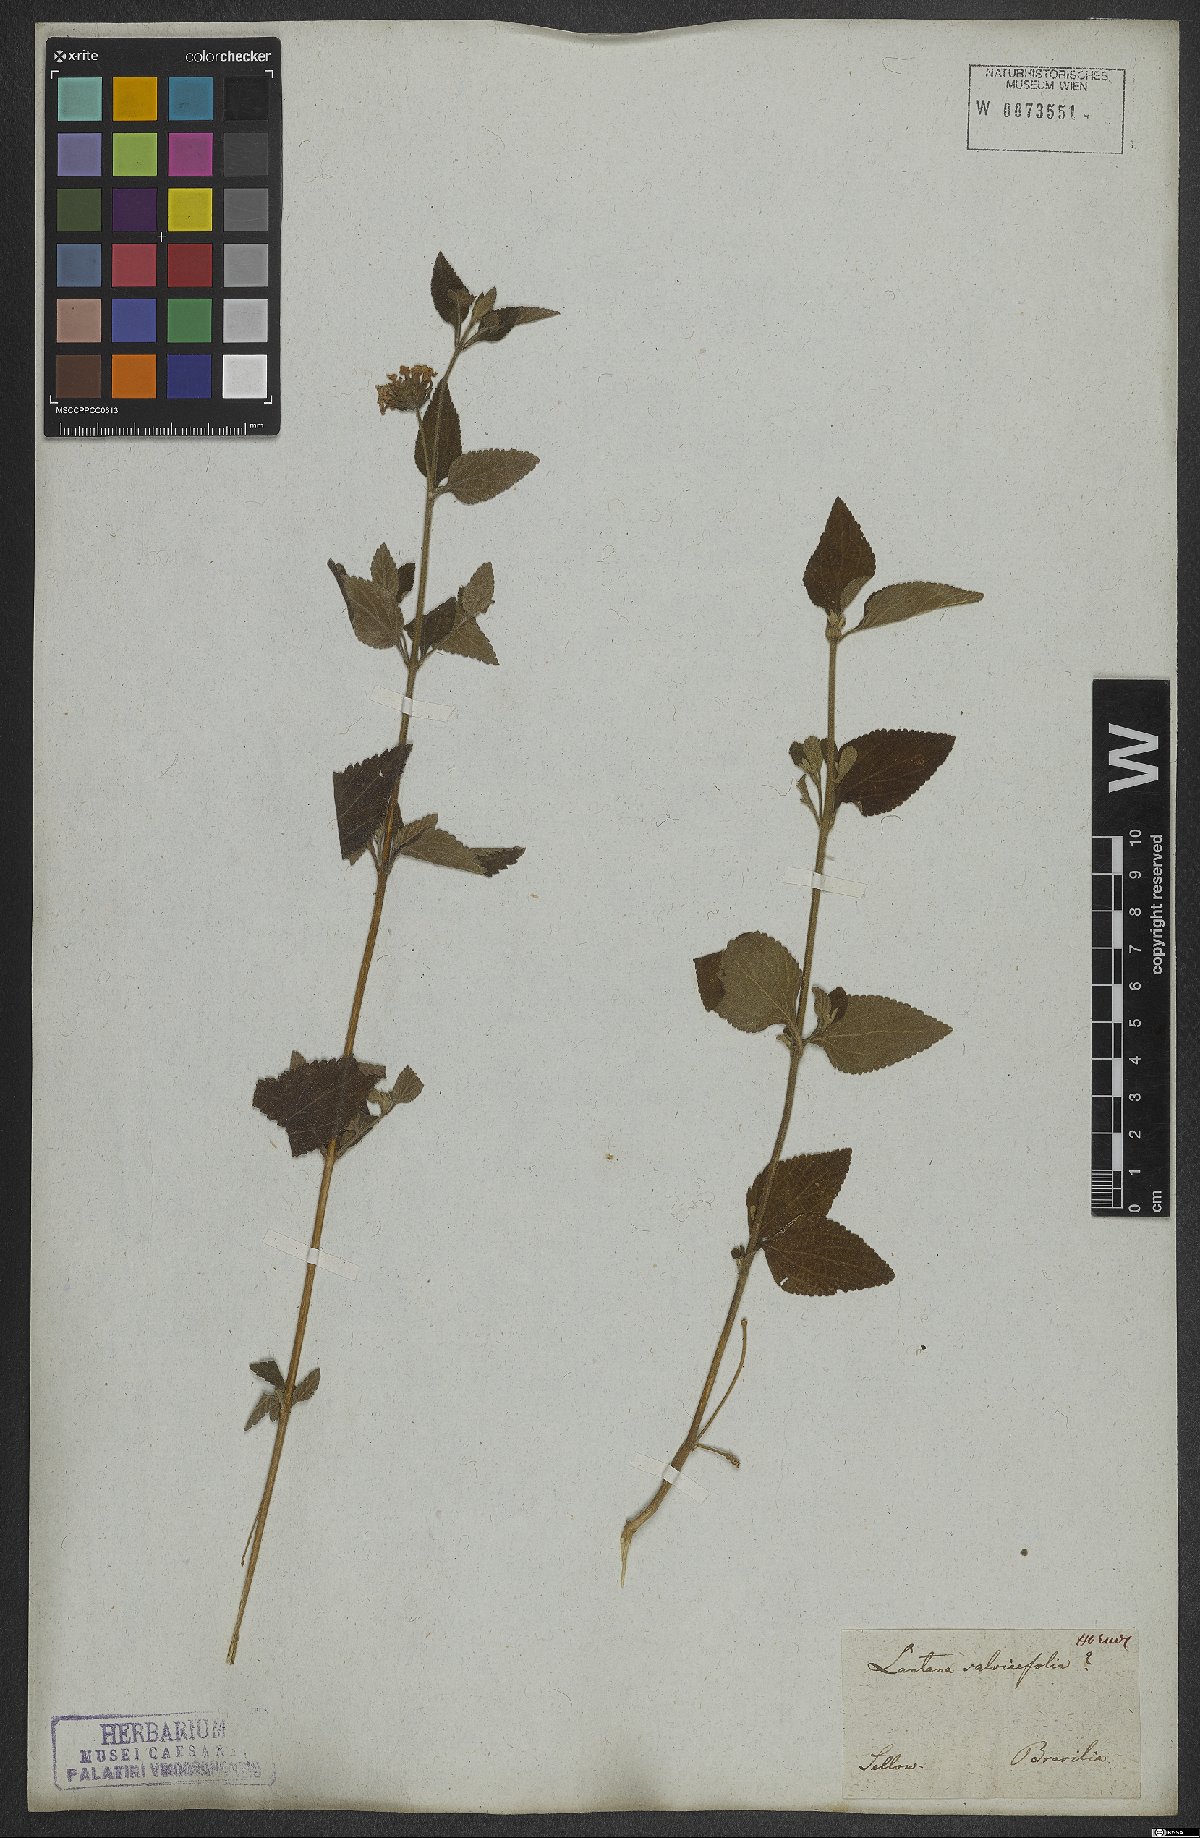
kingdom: Plantae
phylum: Tracheophyta
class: Magnoliopsida
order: Lamiales
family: Verbenaceae
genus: Lantana
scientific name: Lantana fucata
